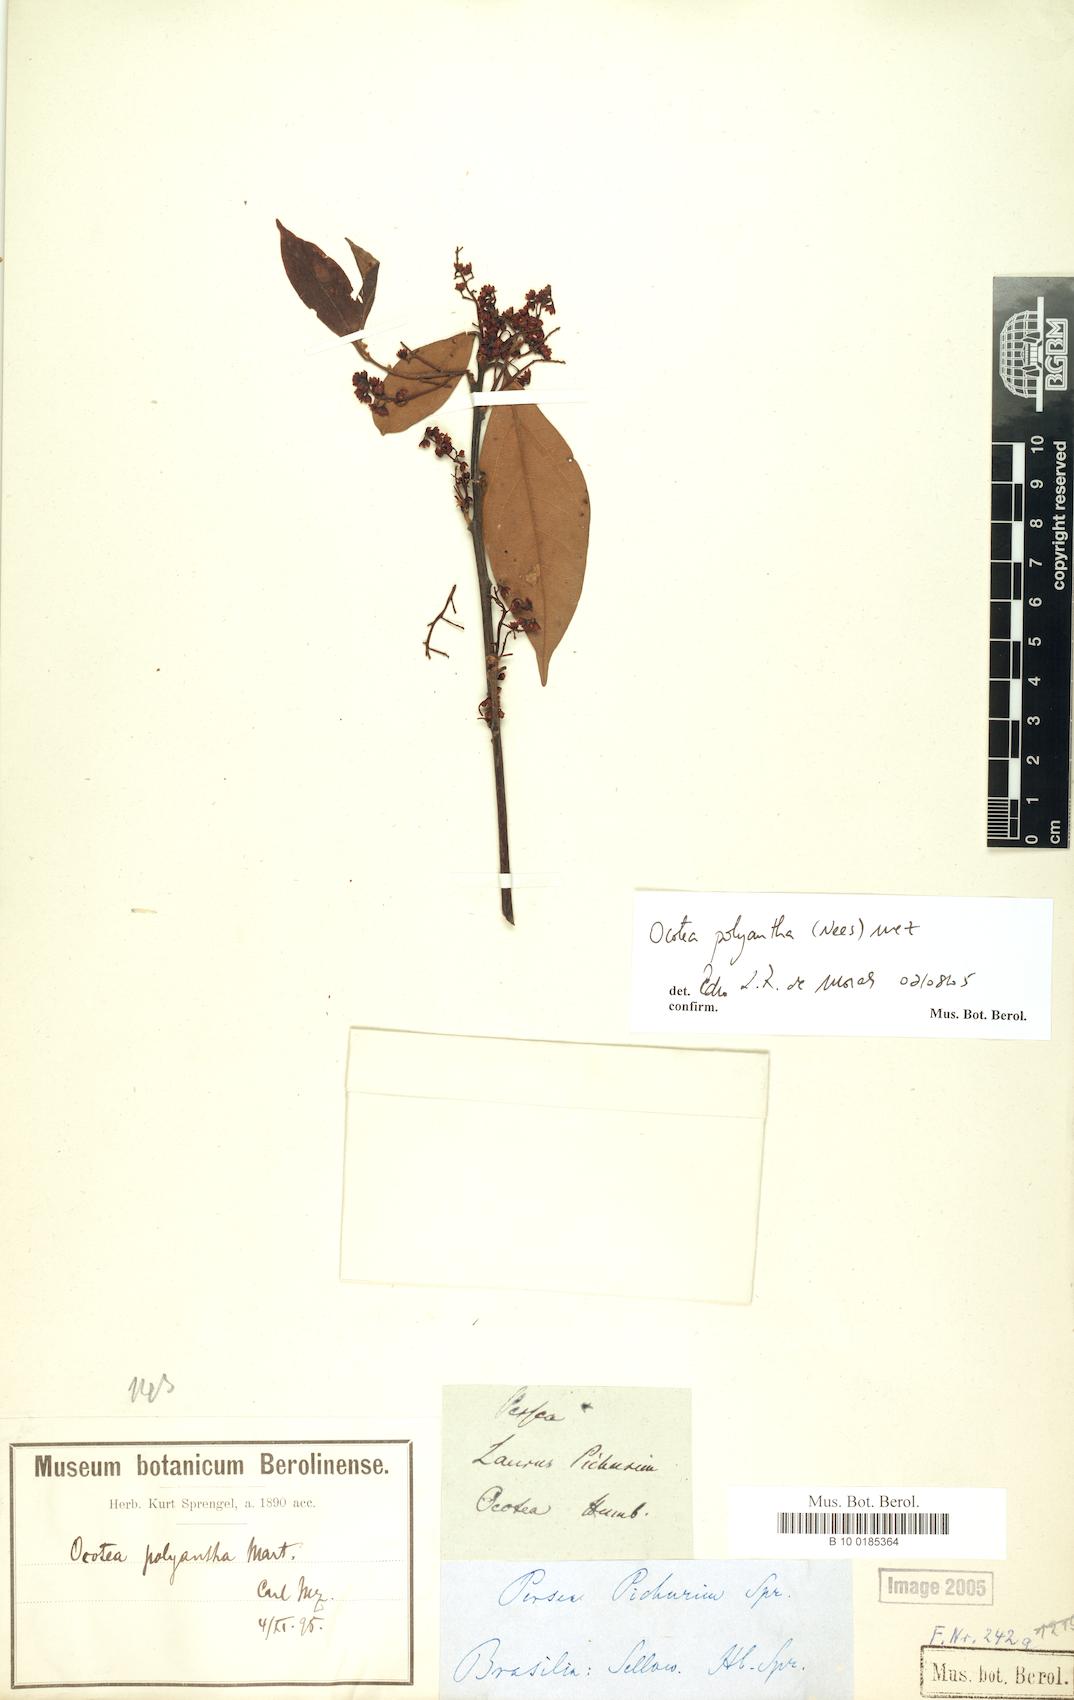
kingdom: Plantae
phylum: Tracheophyta
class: Magnoliopsida
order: Laurales
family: Lauraceae
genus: Ocotea
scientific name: Ocotea polyantha
